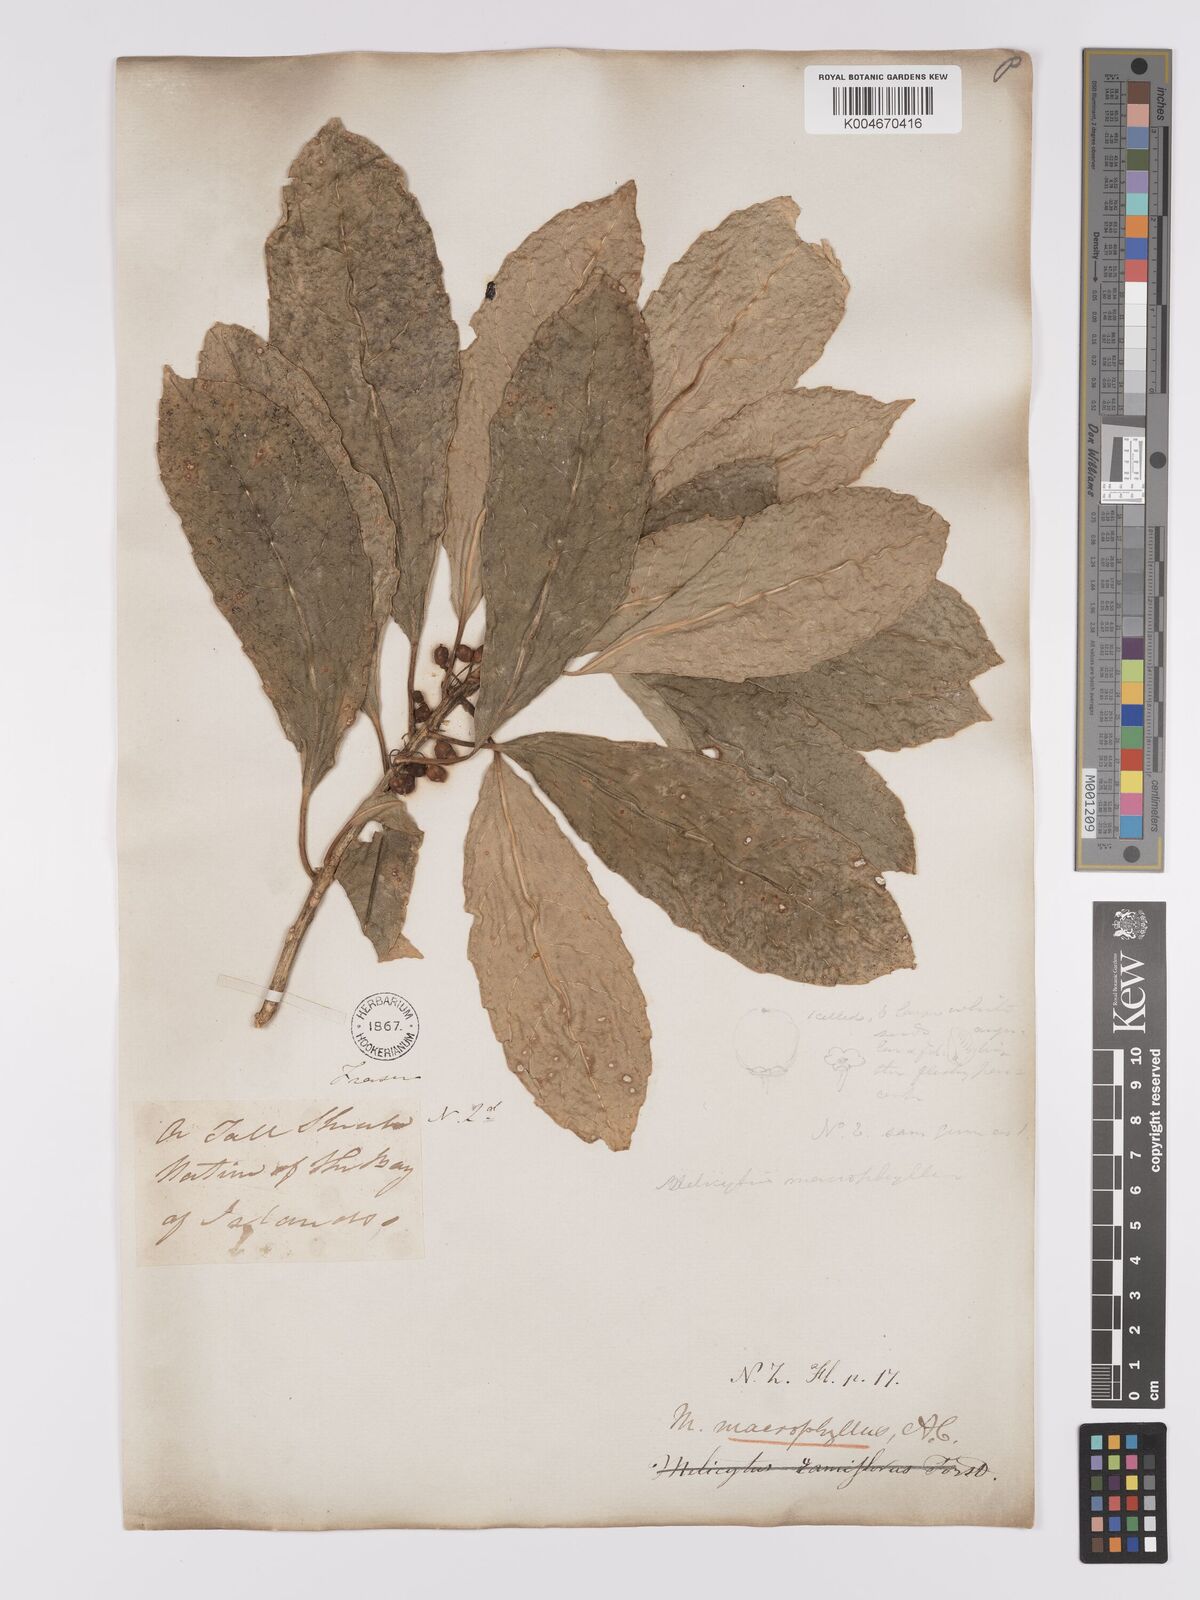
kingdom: Plantae
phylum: Tracheophyta
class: Magnoliopsida
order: Malpighiales
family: Violaceae
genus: Melicytus
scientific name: Melicytus macrophyllus
